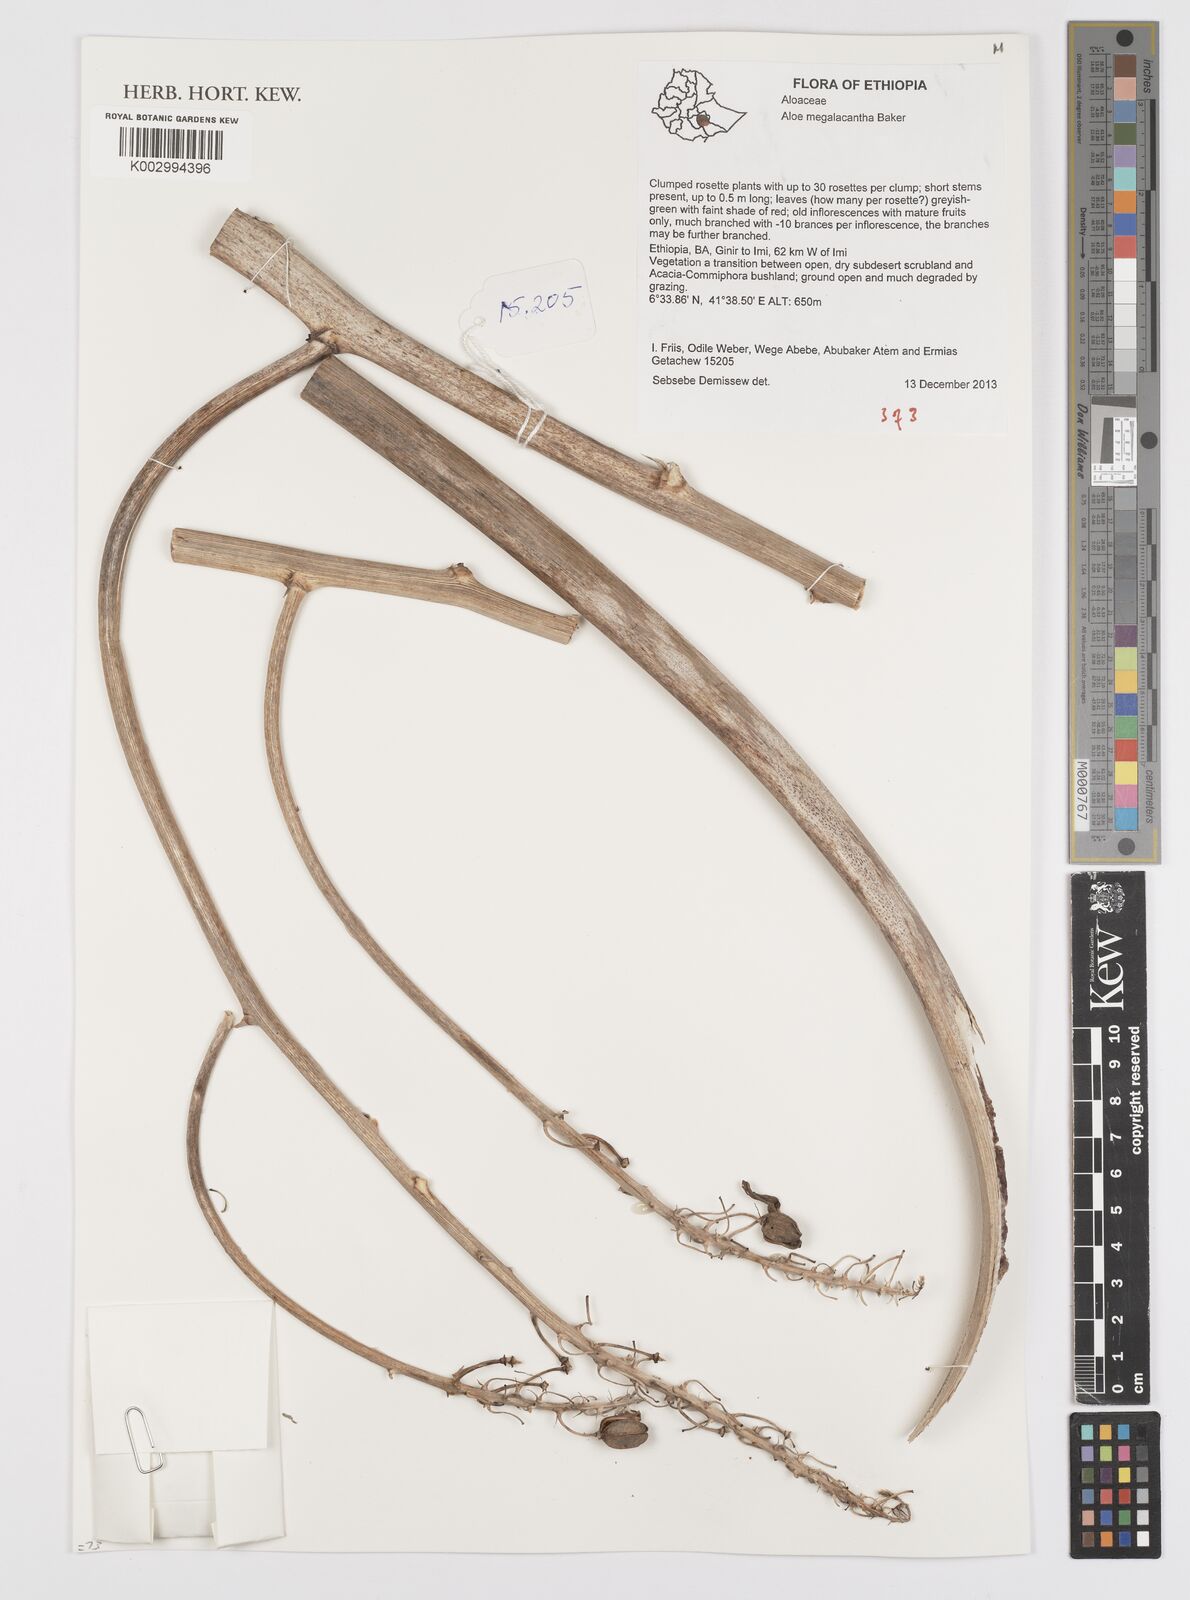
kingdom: Plantae
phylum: Tracheophyta
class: Liliopsida
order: Asparagales
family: Asphodelaceae
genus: Aloe
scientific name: Aloe megalacantha
